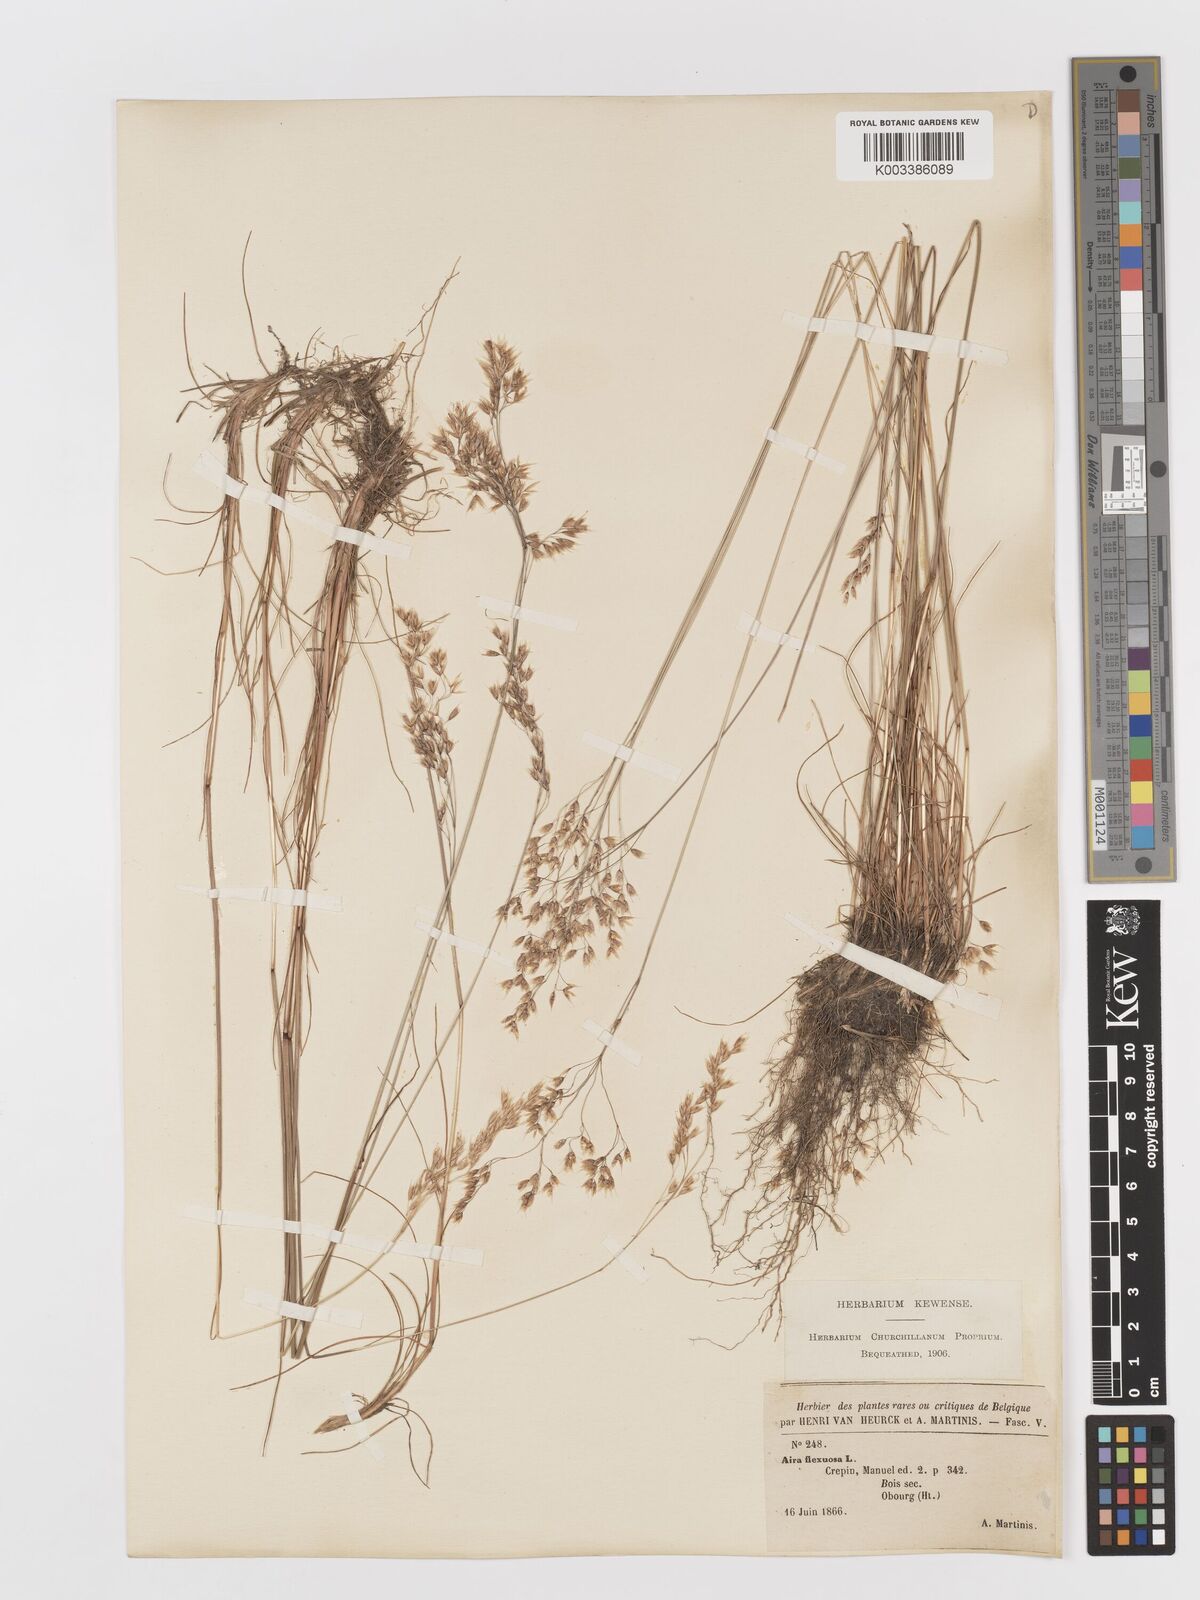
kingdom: Plantae
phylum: Tracheophyta
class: Liliopsida
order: Poales
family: Poaceae
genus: Avenella
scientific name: Avenella flexuosa
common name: Wavy hairgrass
